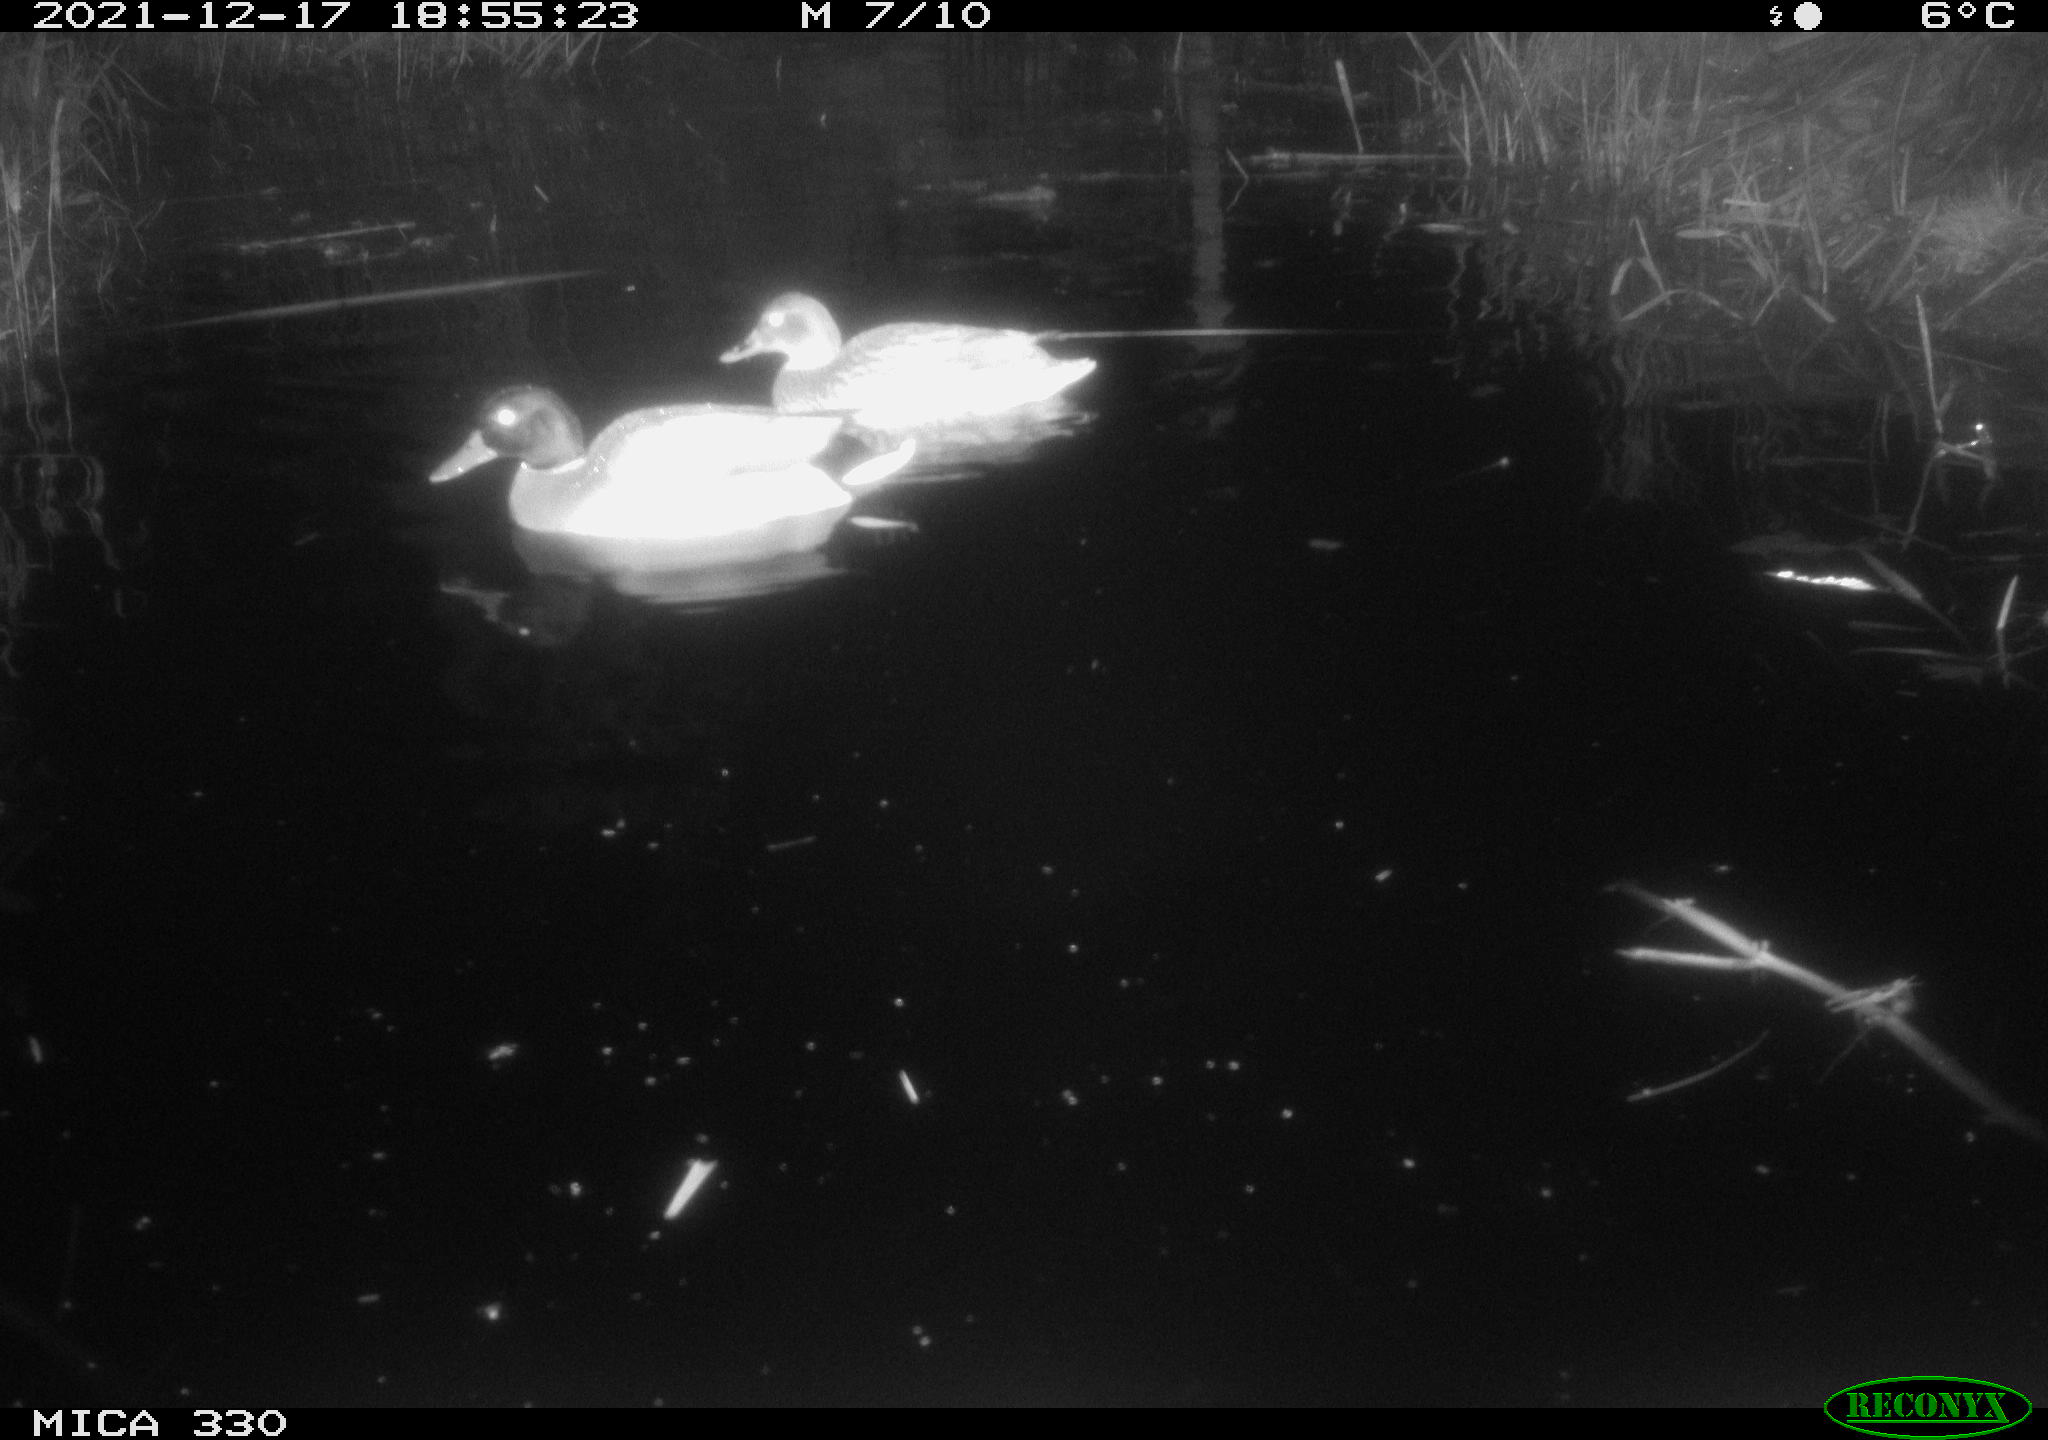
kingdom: Animalia
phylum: Chordata
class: Aves
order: Anseriformes
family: Anatidae
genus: Anas
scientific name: Anas platyrhynchos
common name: Mallard
